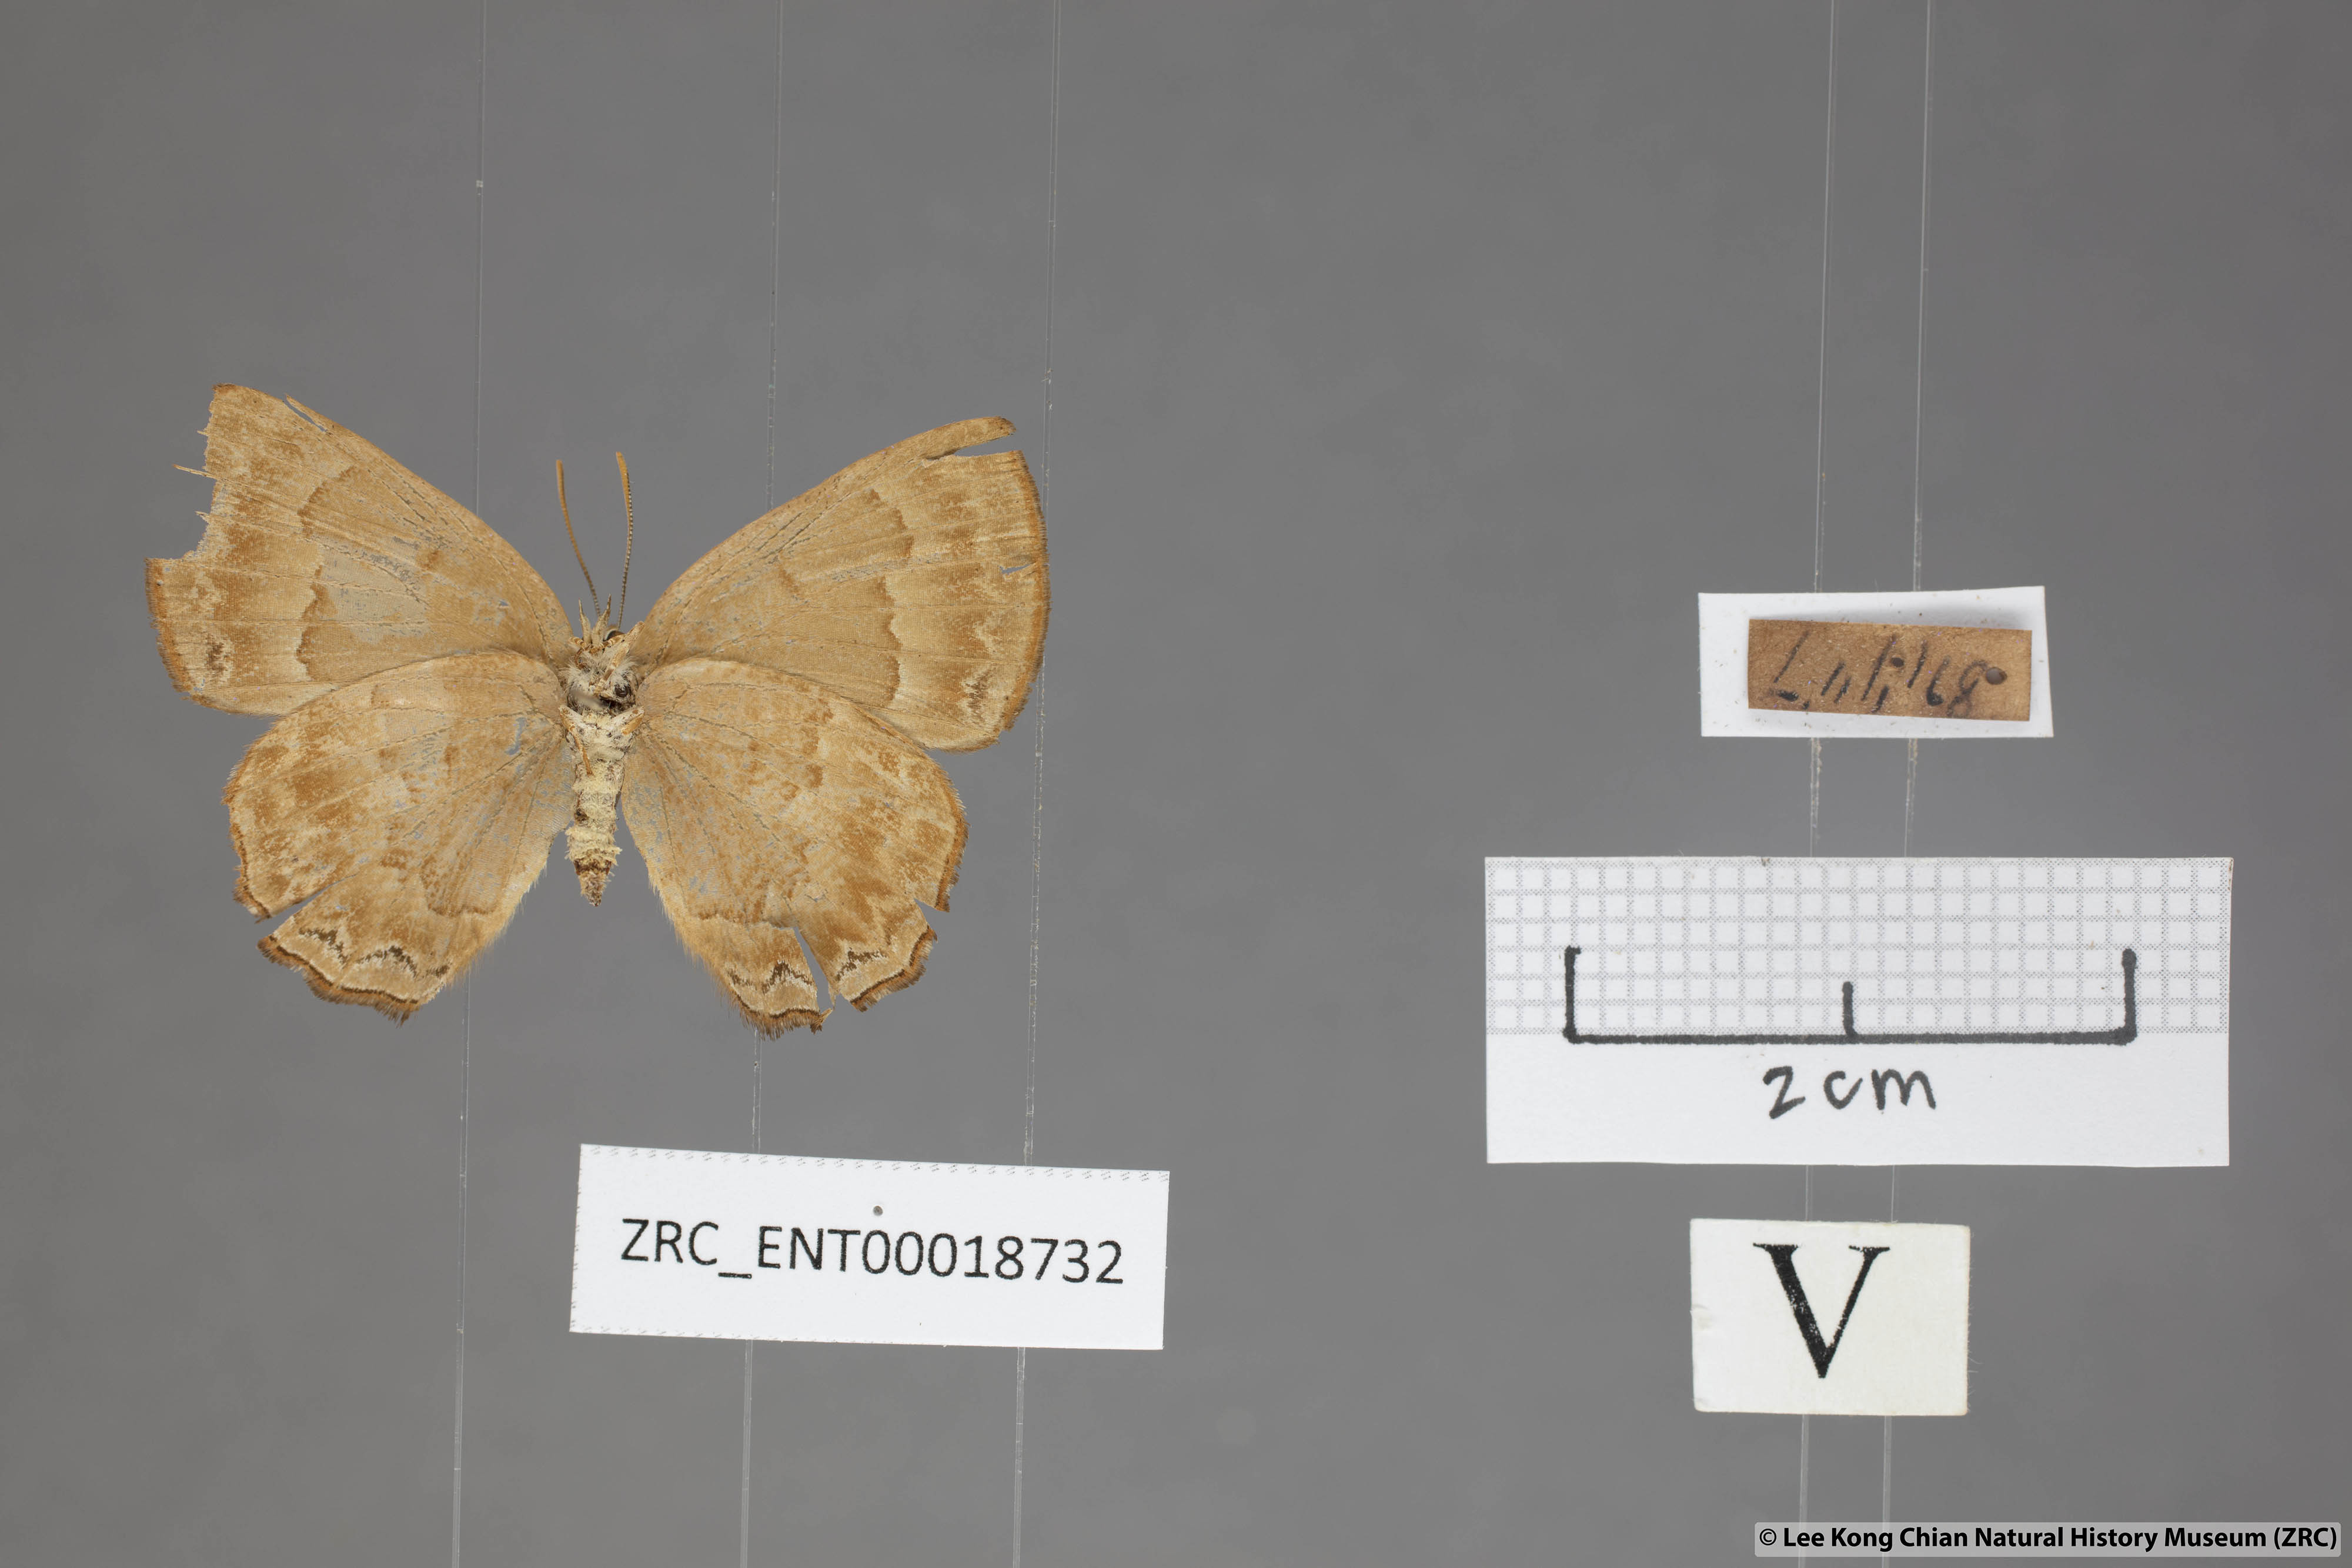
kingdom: Animalia
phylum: Arthropoda
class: Insecta
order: Lepidoptera
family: Lycaenidae
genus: Deramas
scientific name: Deramas livena
